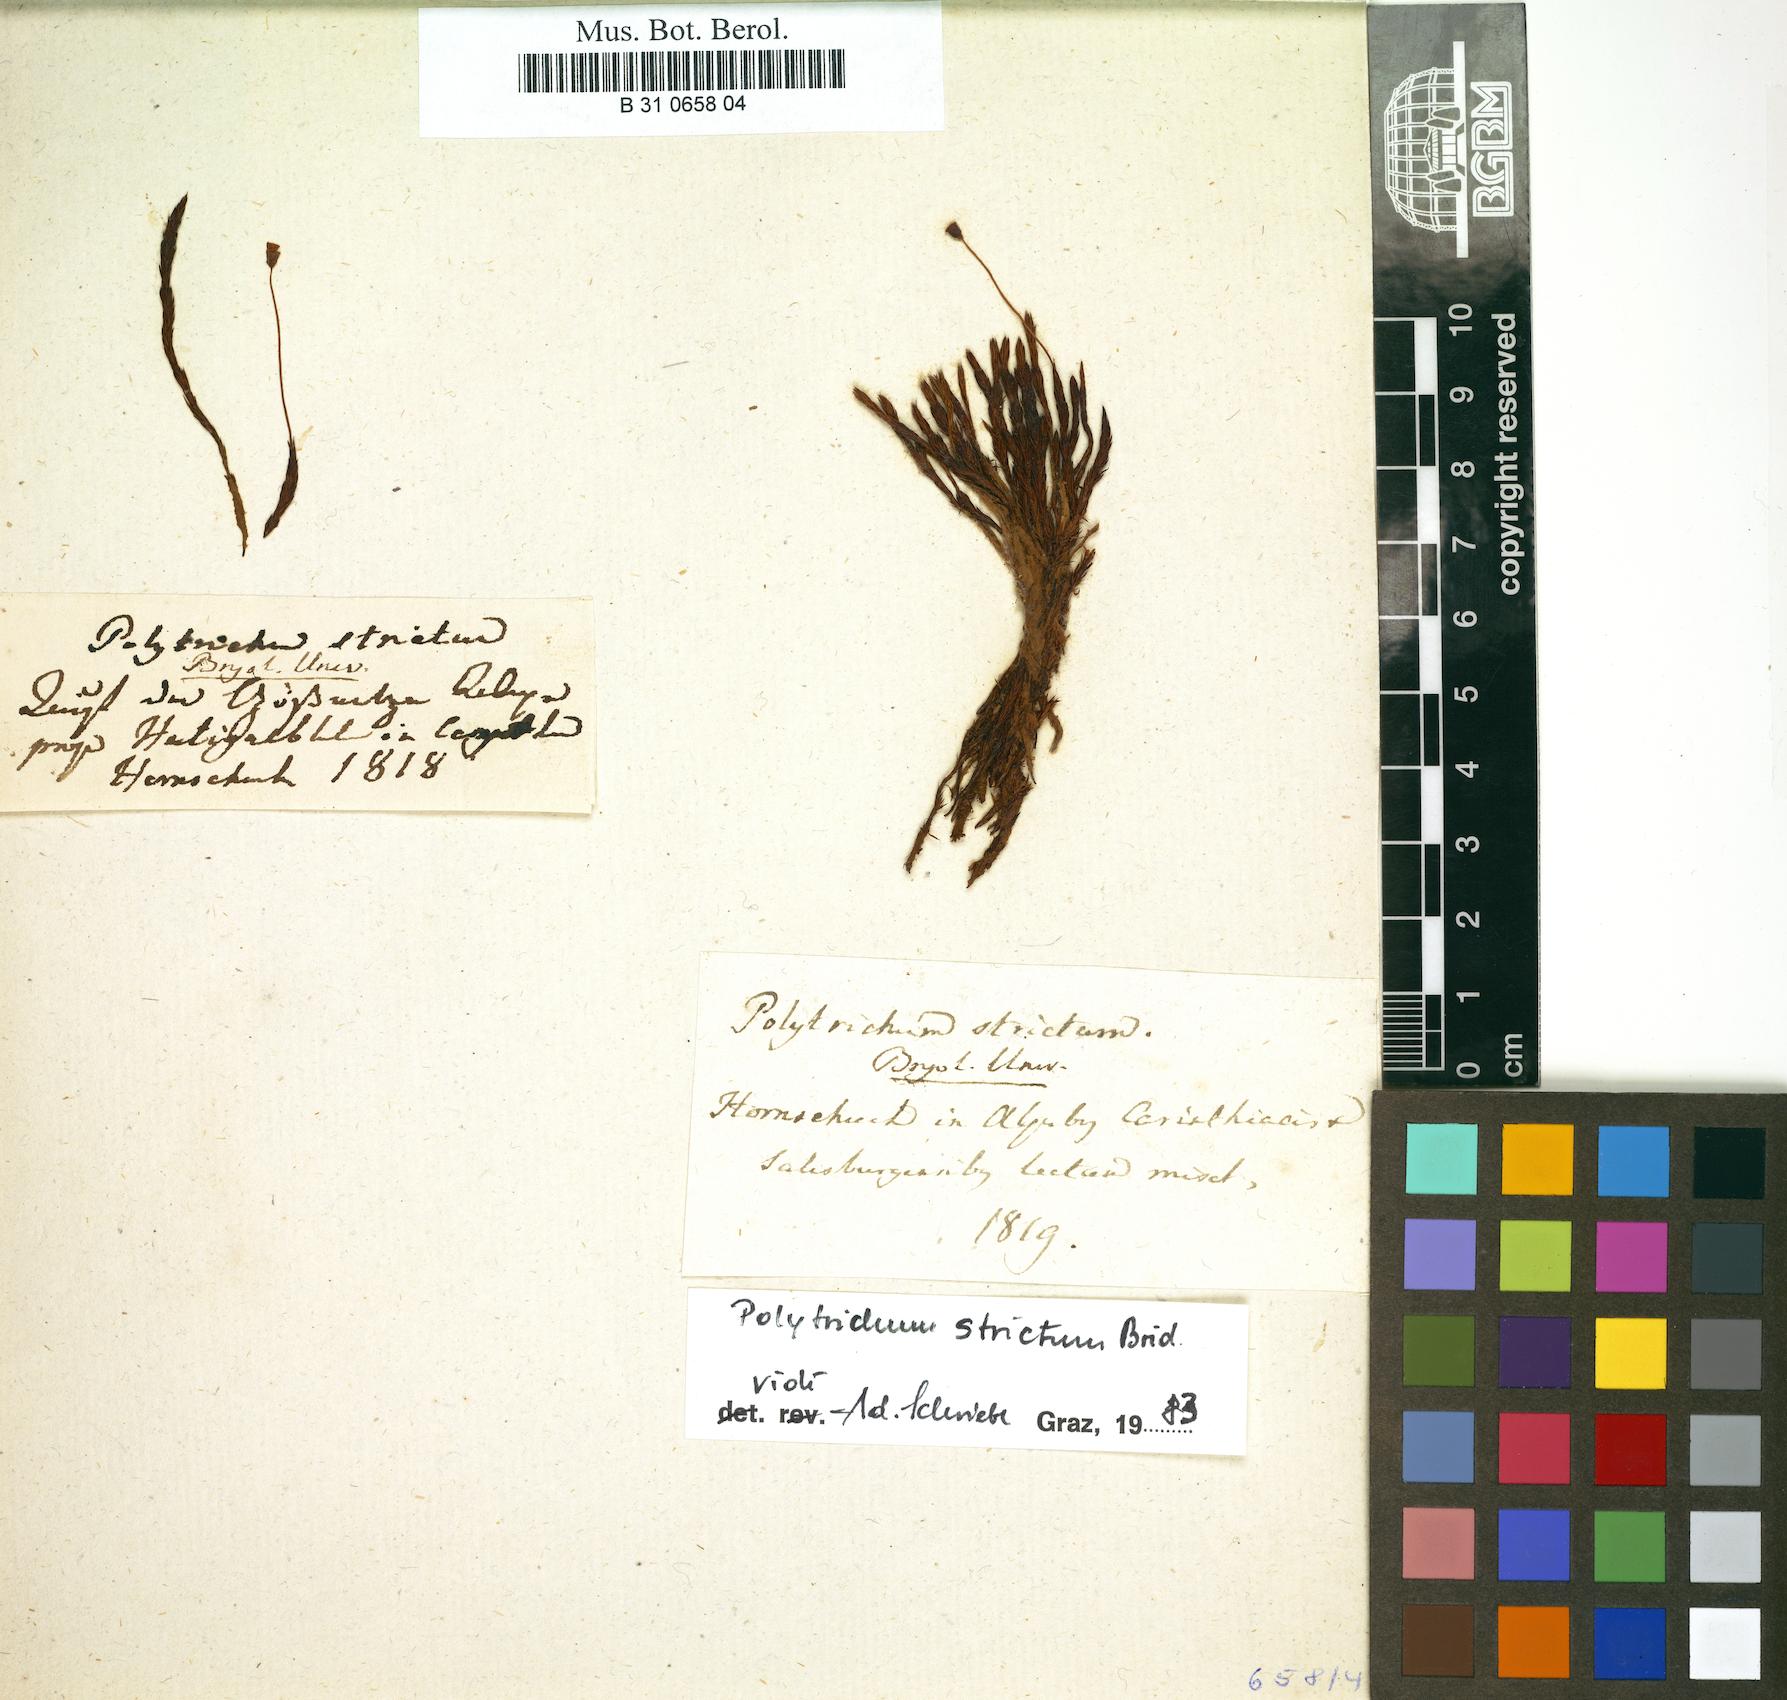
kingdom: Plantae
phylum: Bryophyta
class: Polytrichopsida
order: Polytrichales
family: Polytrichaceae
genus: Polytrichum
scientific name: Polytrichum strictum
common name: Bog haircap moss
